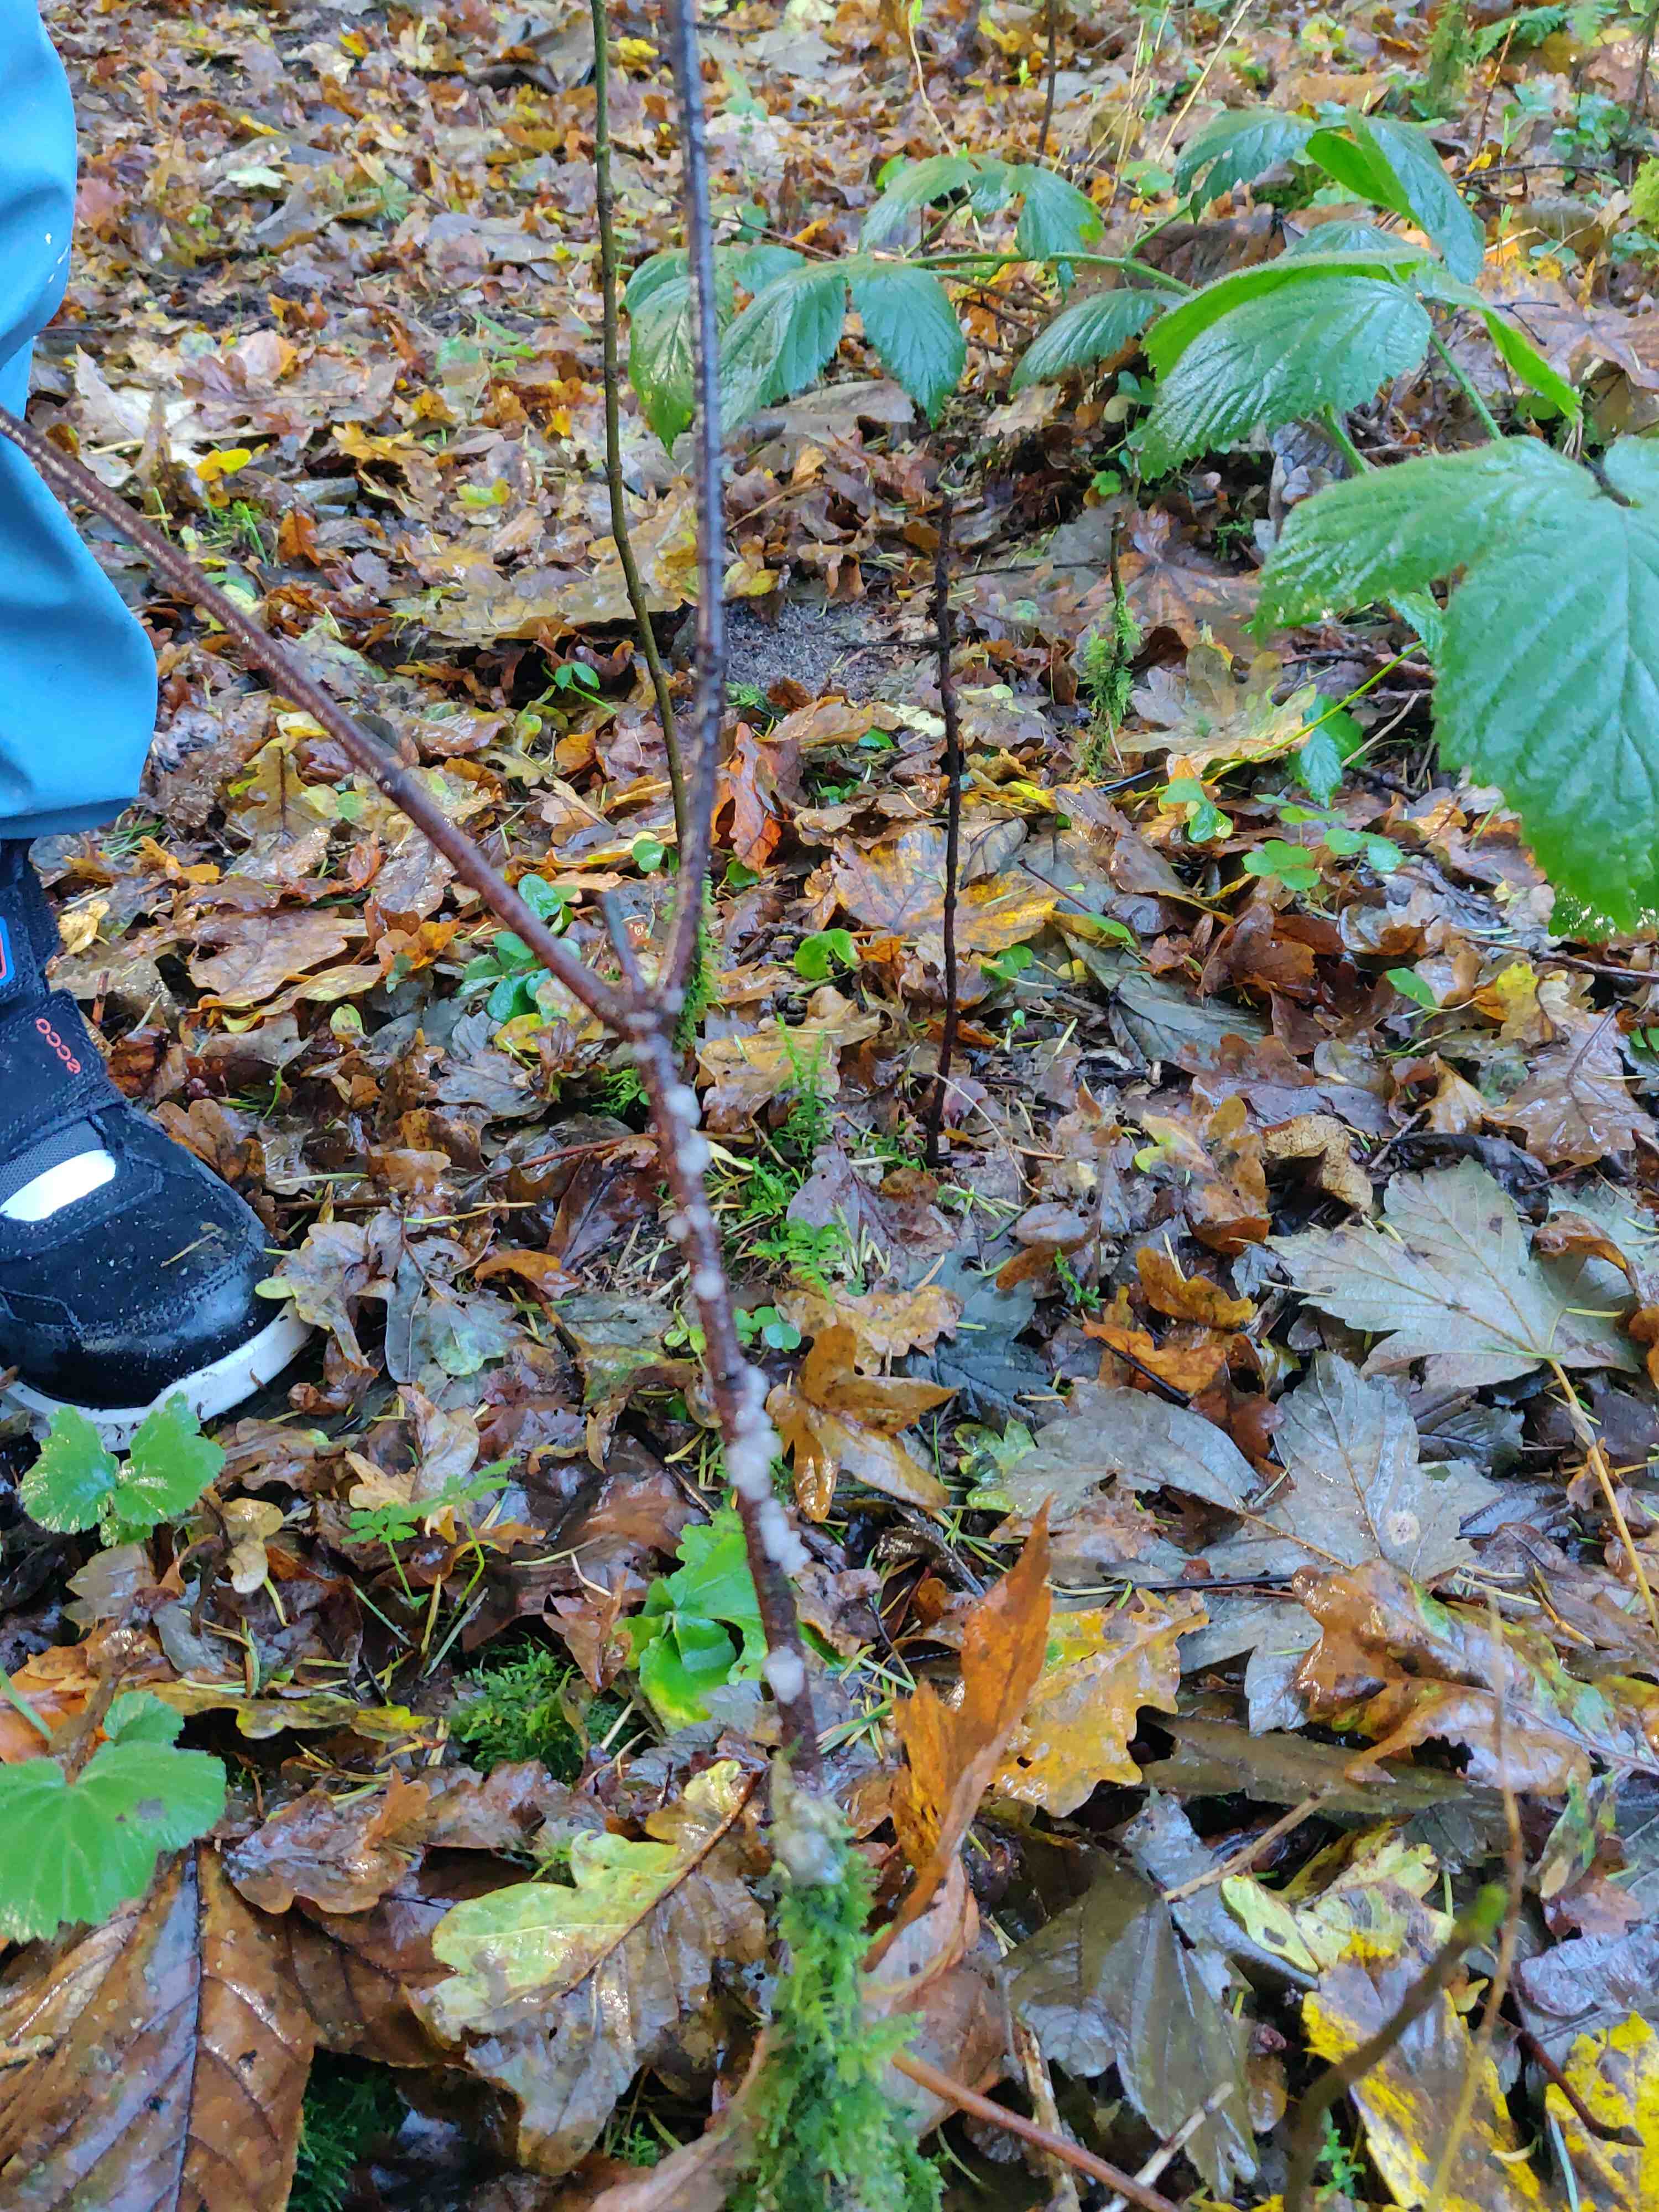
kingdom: Fungi
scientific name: Fungi
